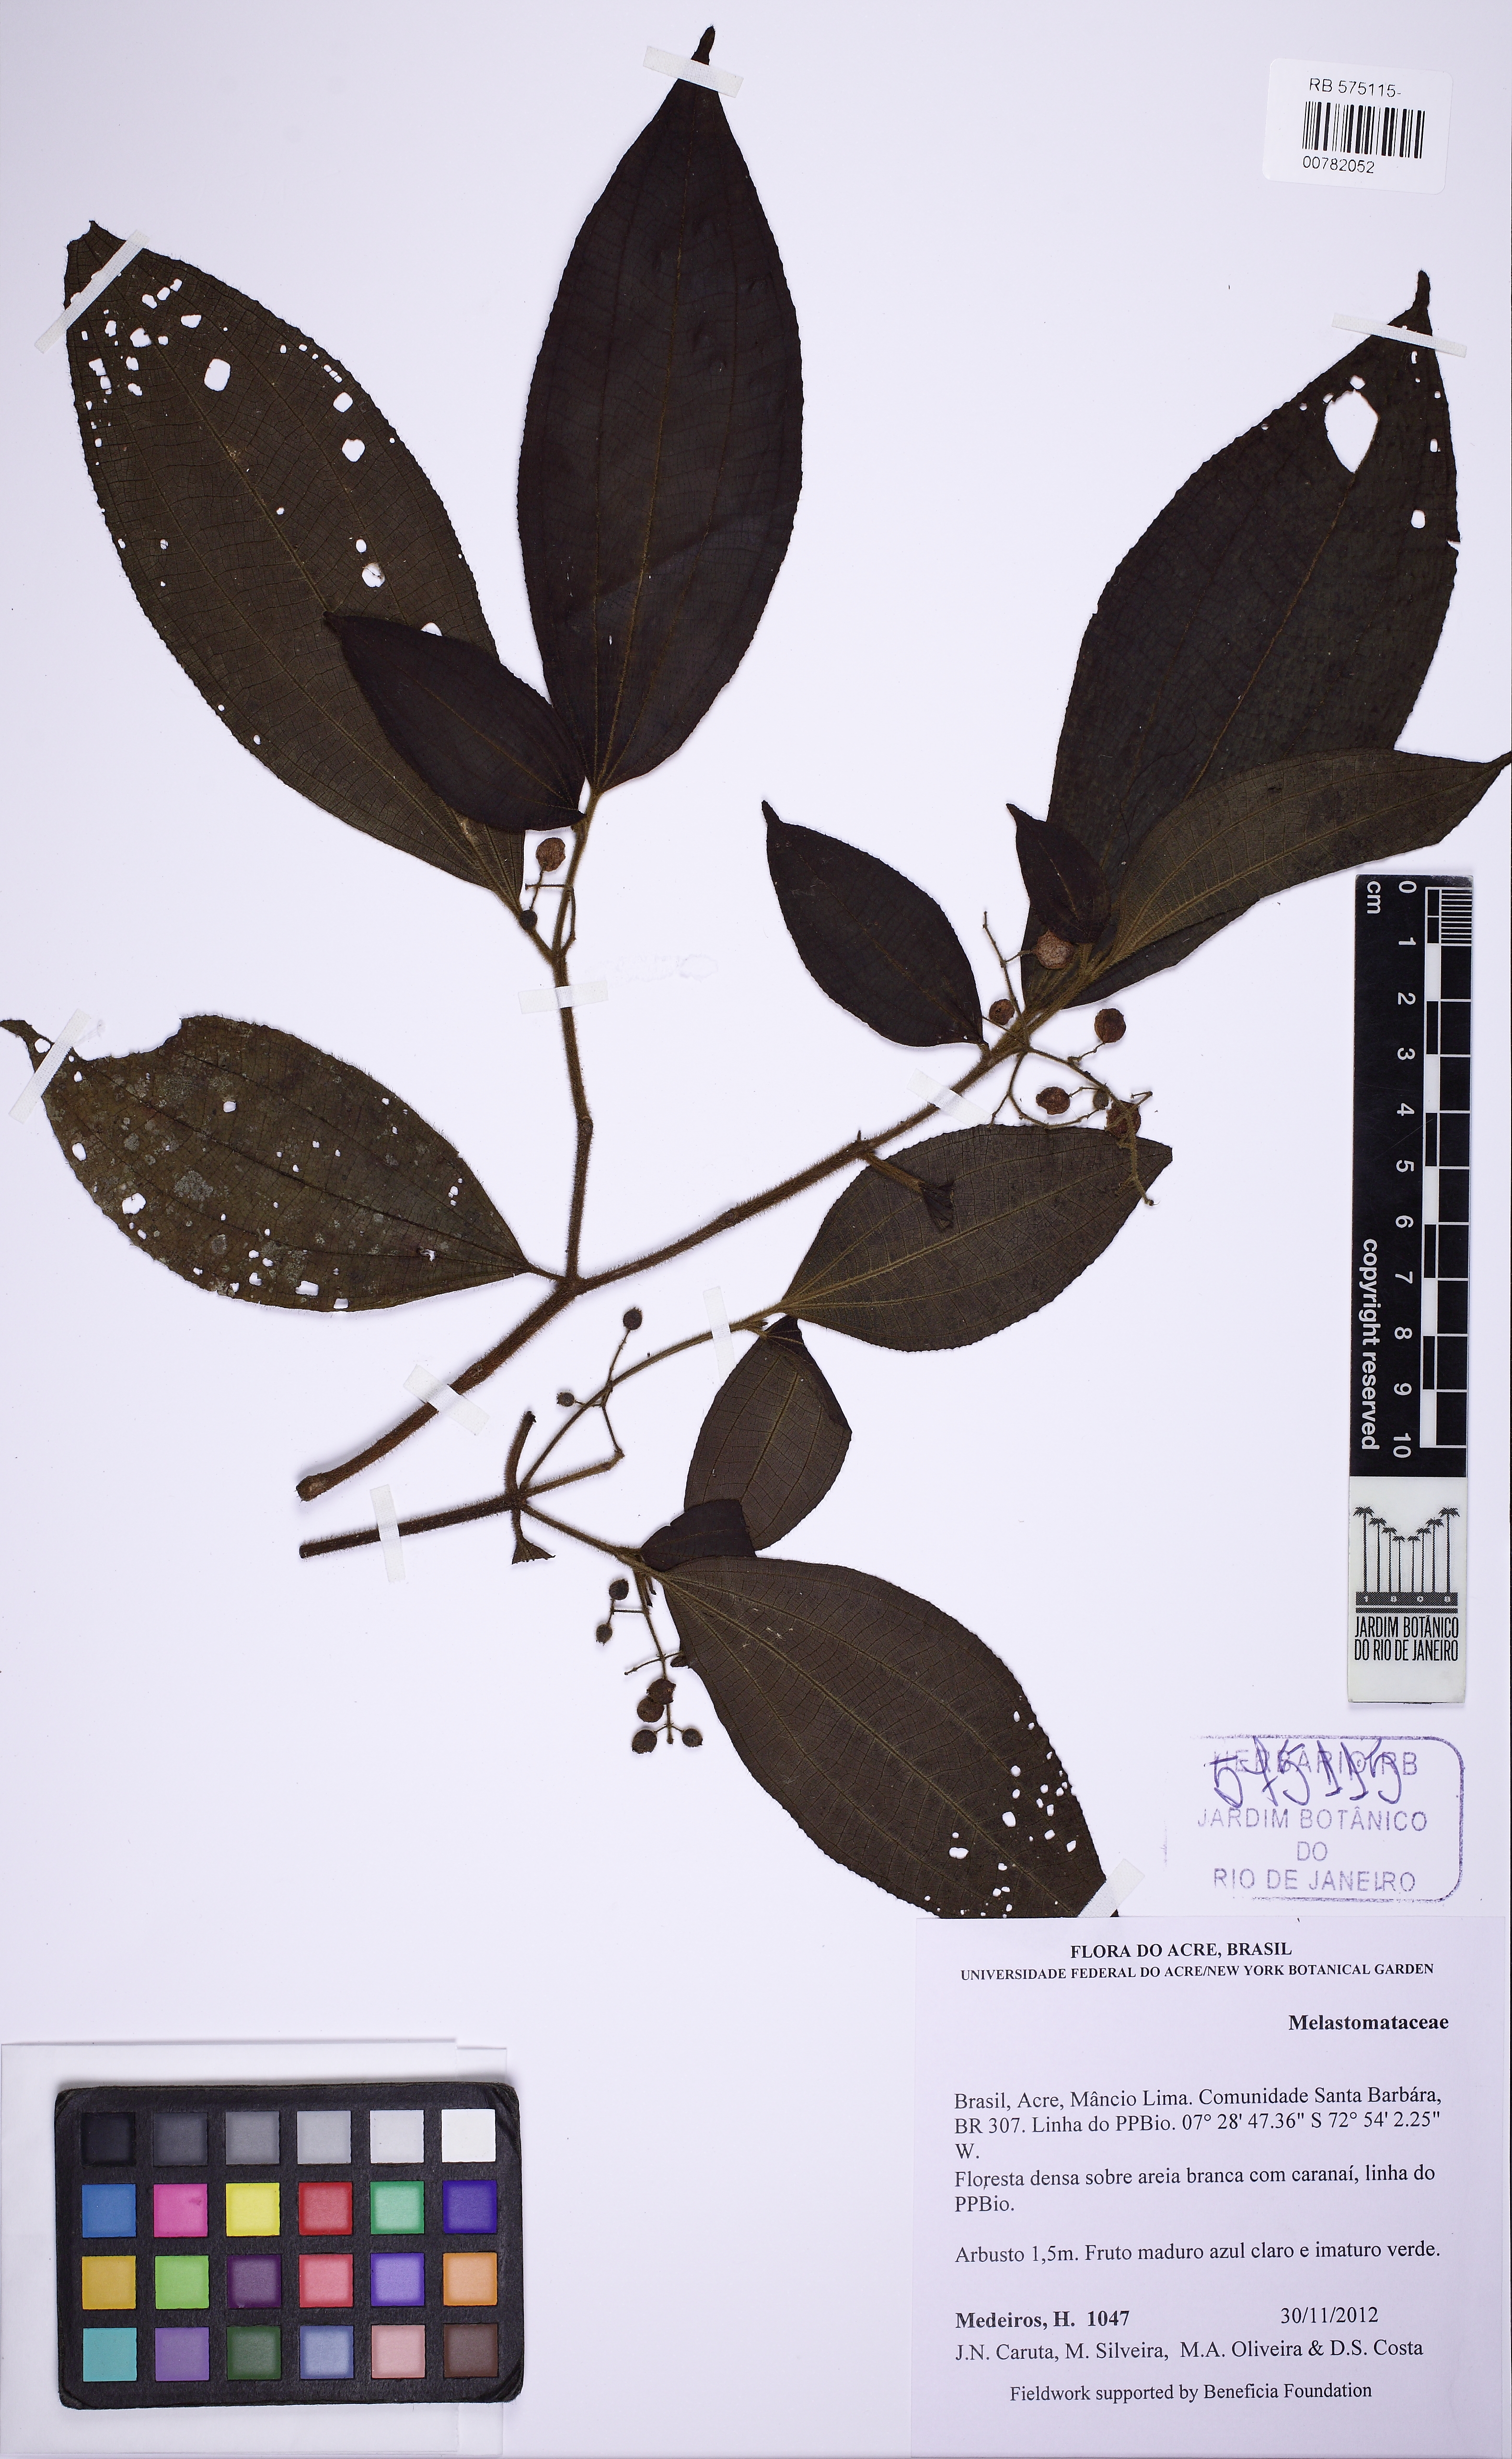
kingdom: Plantae
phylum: Tracheophyta
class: Magnoliopsida
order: Myrtales
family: Melastomataceae
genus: Miconia
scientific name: Miconia
